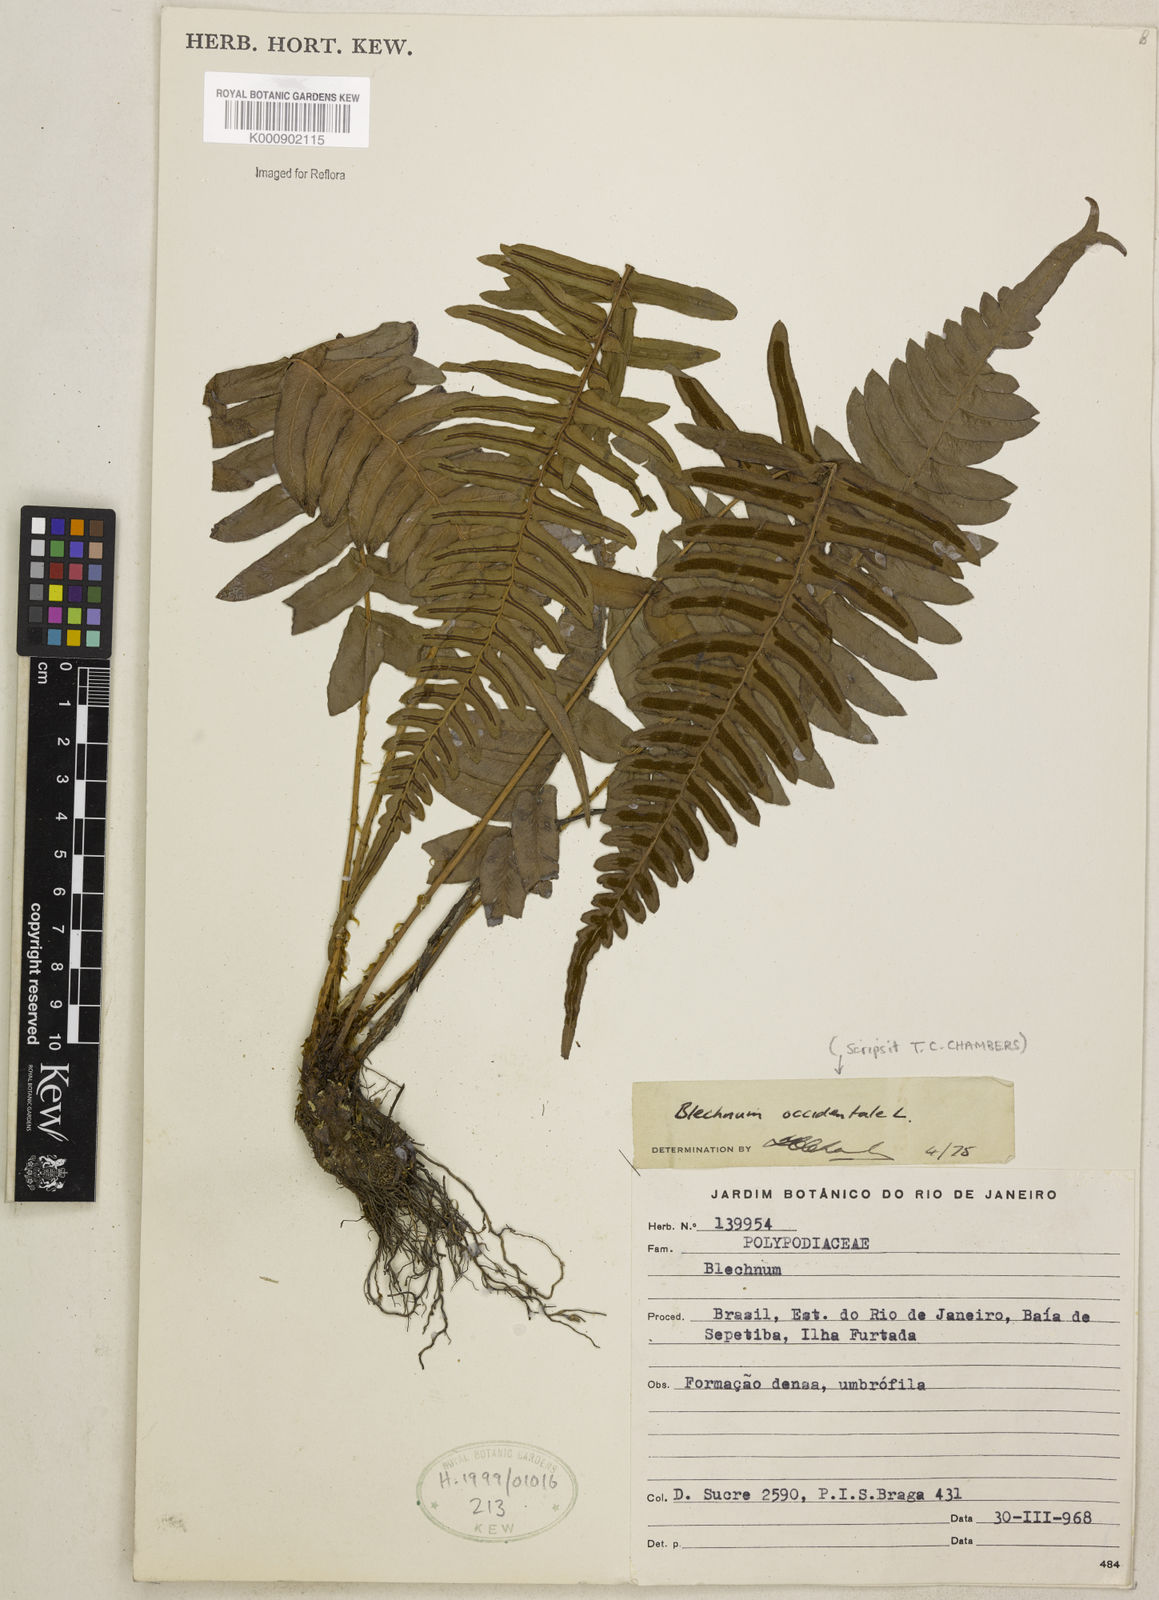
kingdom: Plantae
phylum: Tracheophyta
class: Polypodiopsida
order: Polypodiales
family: Blechnaceae
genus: Blechnum
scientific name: Blechnum occidentale
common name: Hammock fern
